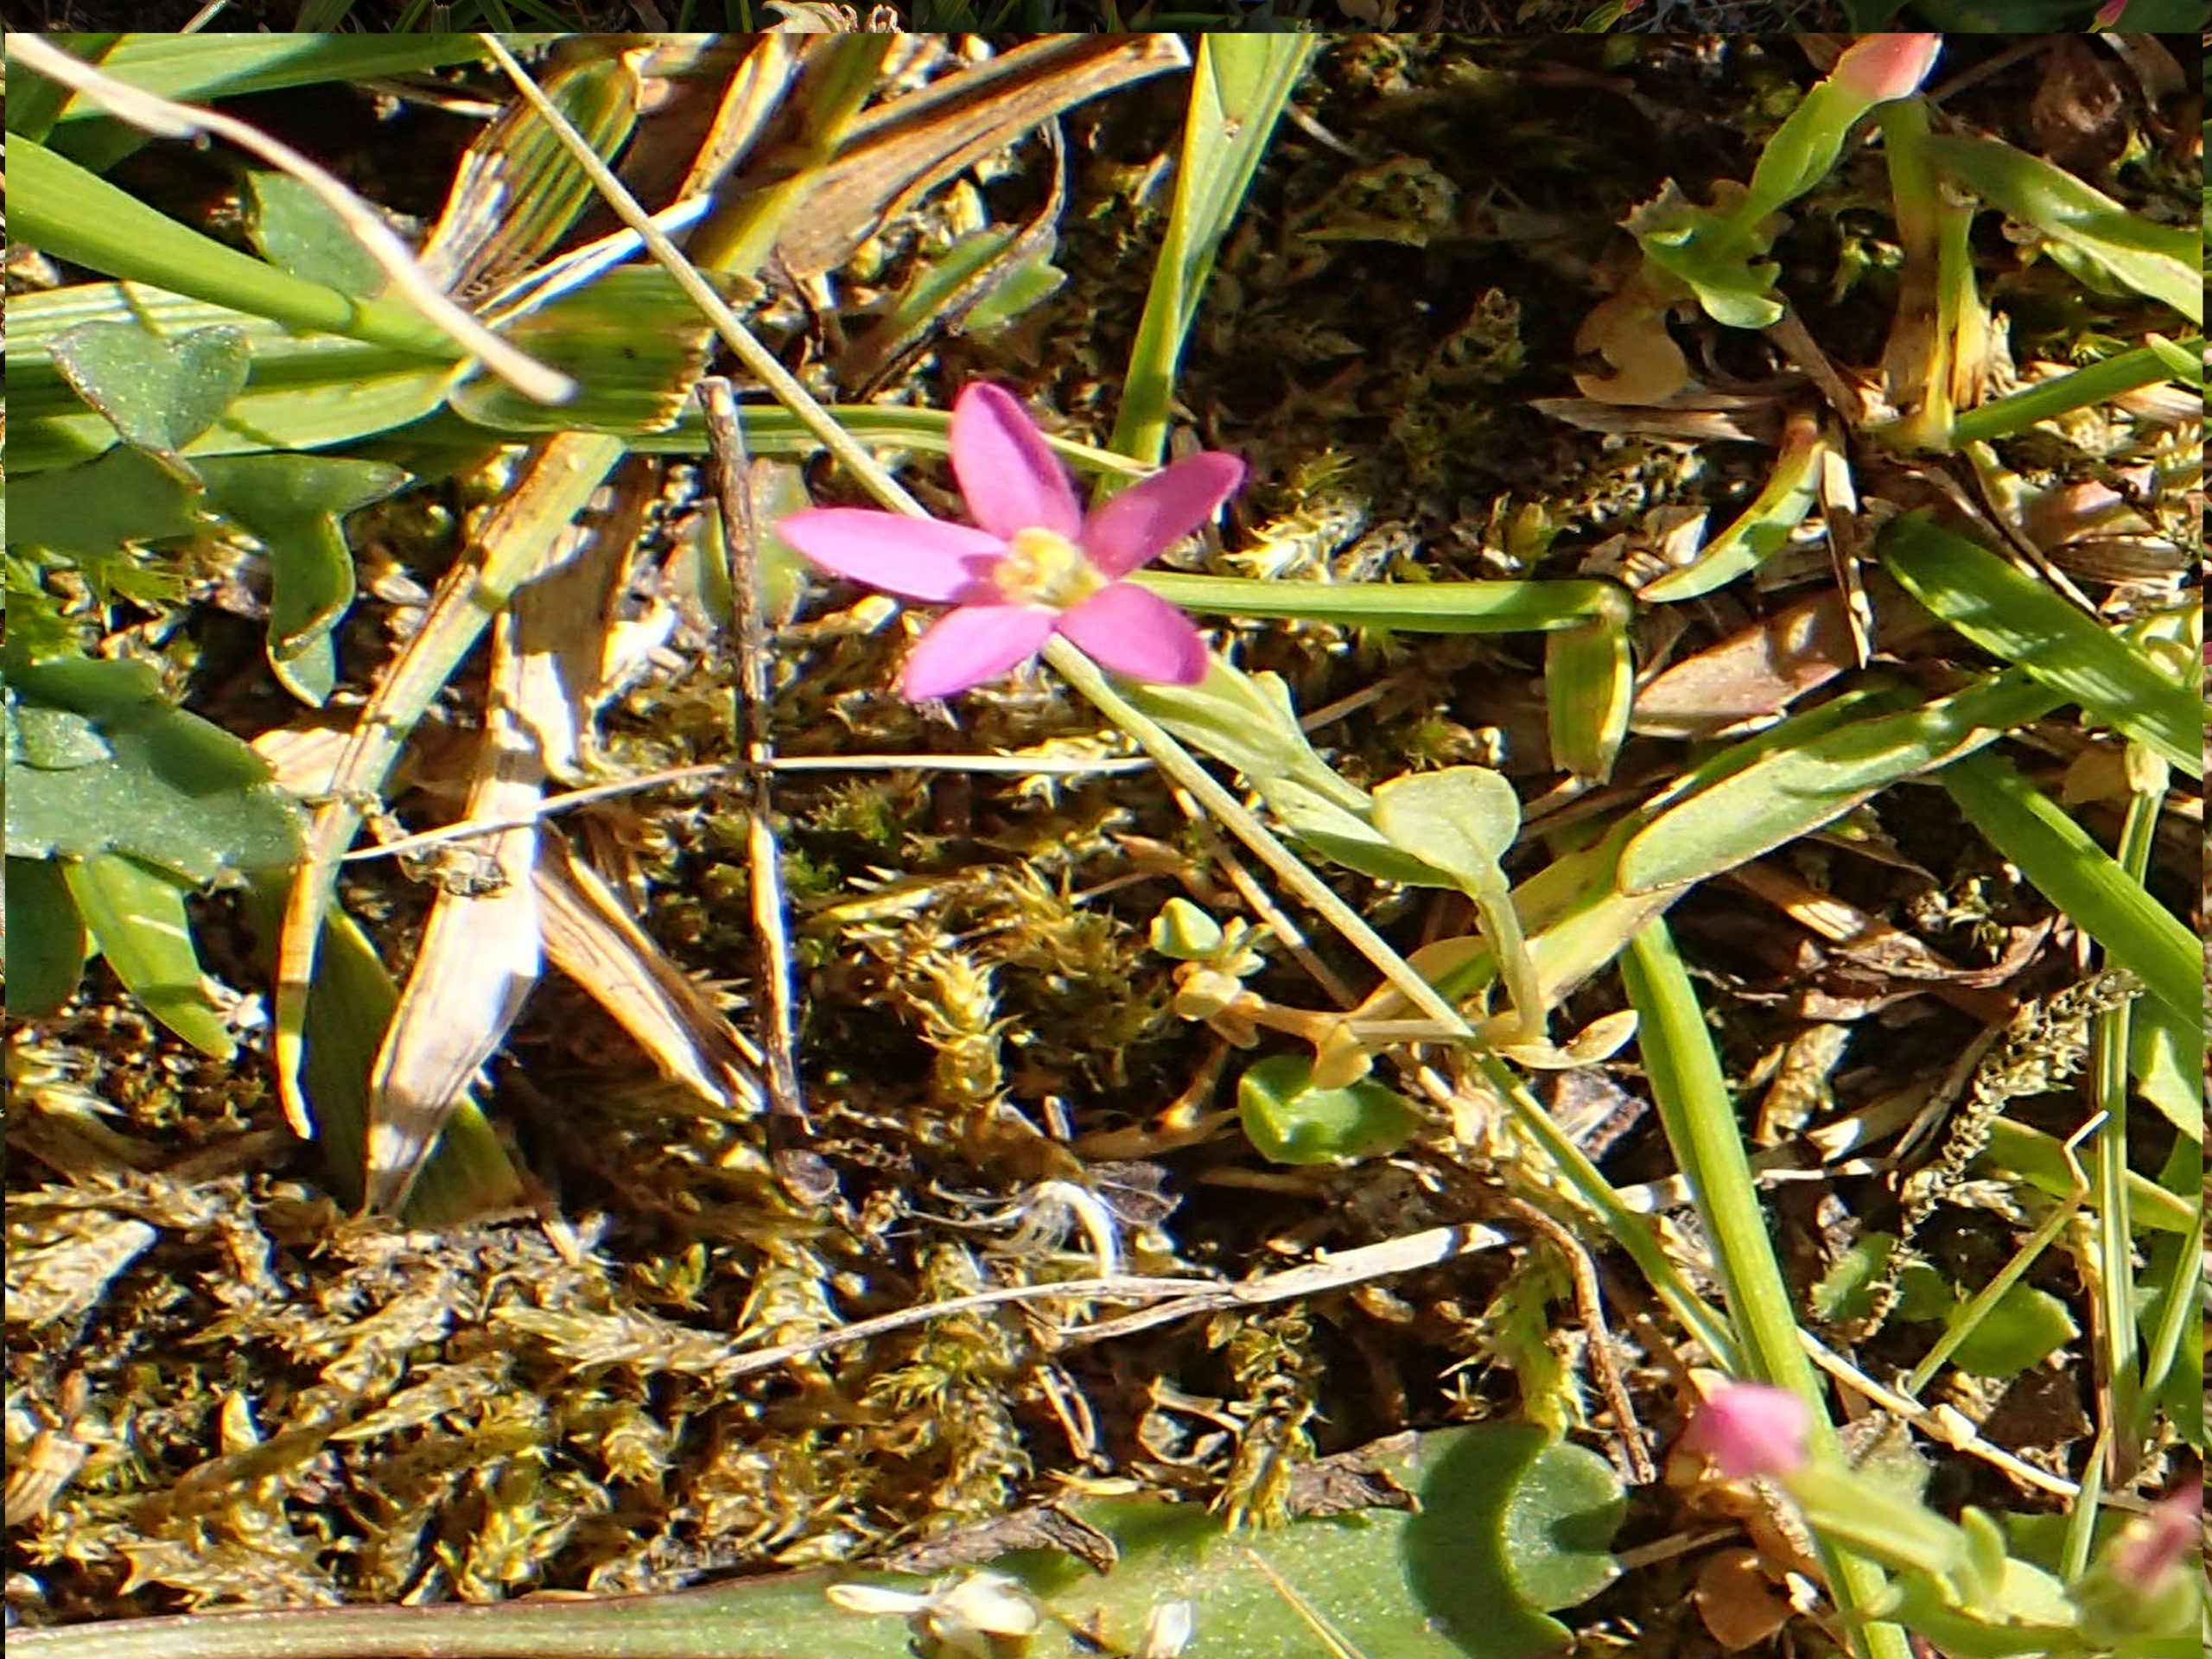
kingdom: Plantae
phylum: Tracheophyta
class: Magnoliopsida
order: Gentianales
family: Gentianaceae
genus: Centaurium
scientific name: Centaurium pulchellum
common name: Liden tusindgylden
